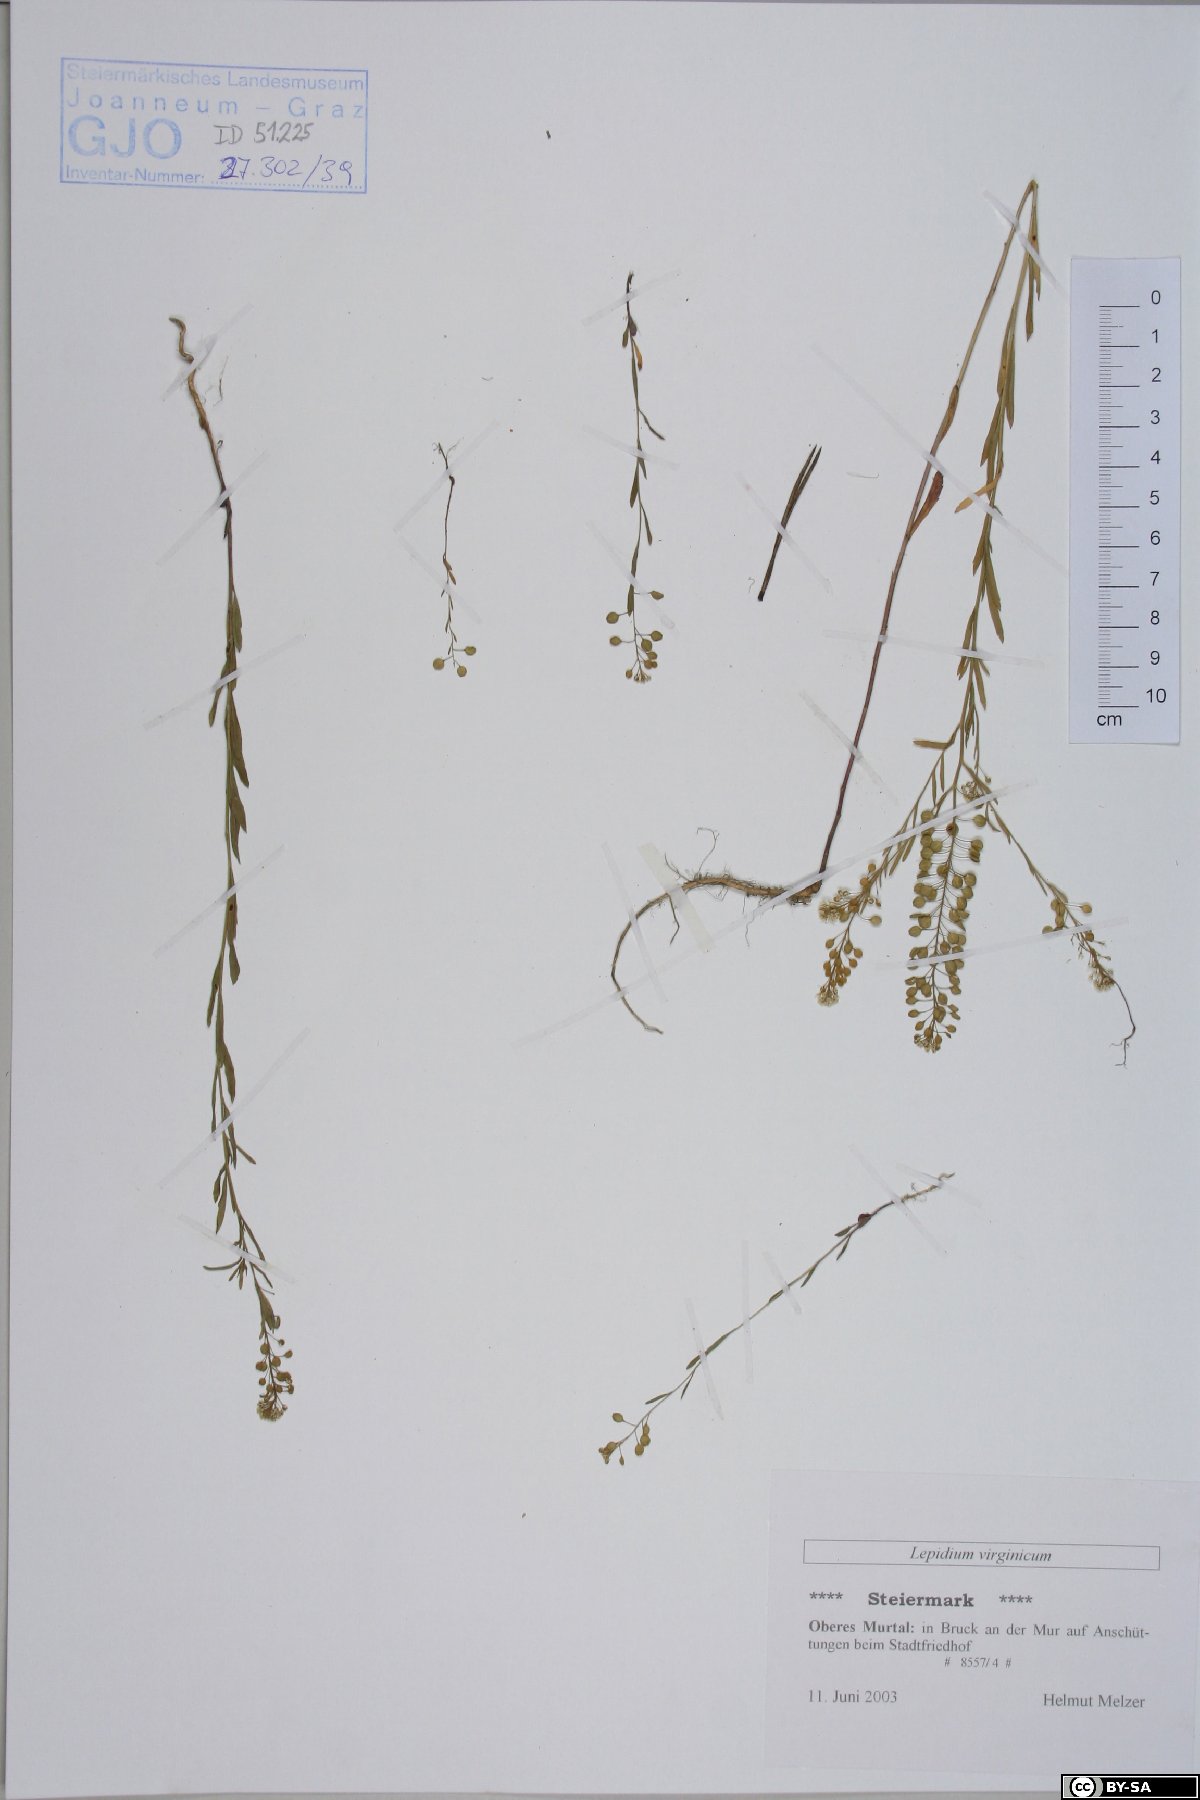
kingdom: Plantae
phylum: Tracheophyta
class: Magnoliopsida
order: Brassicales
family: Brassicaceae
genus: Lepidium
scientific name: Lepidium virginicum
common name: Least pepperwort
